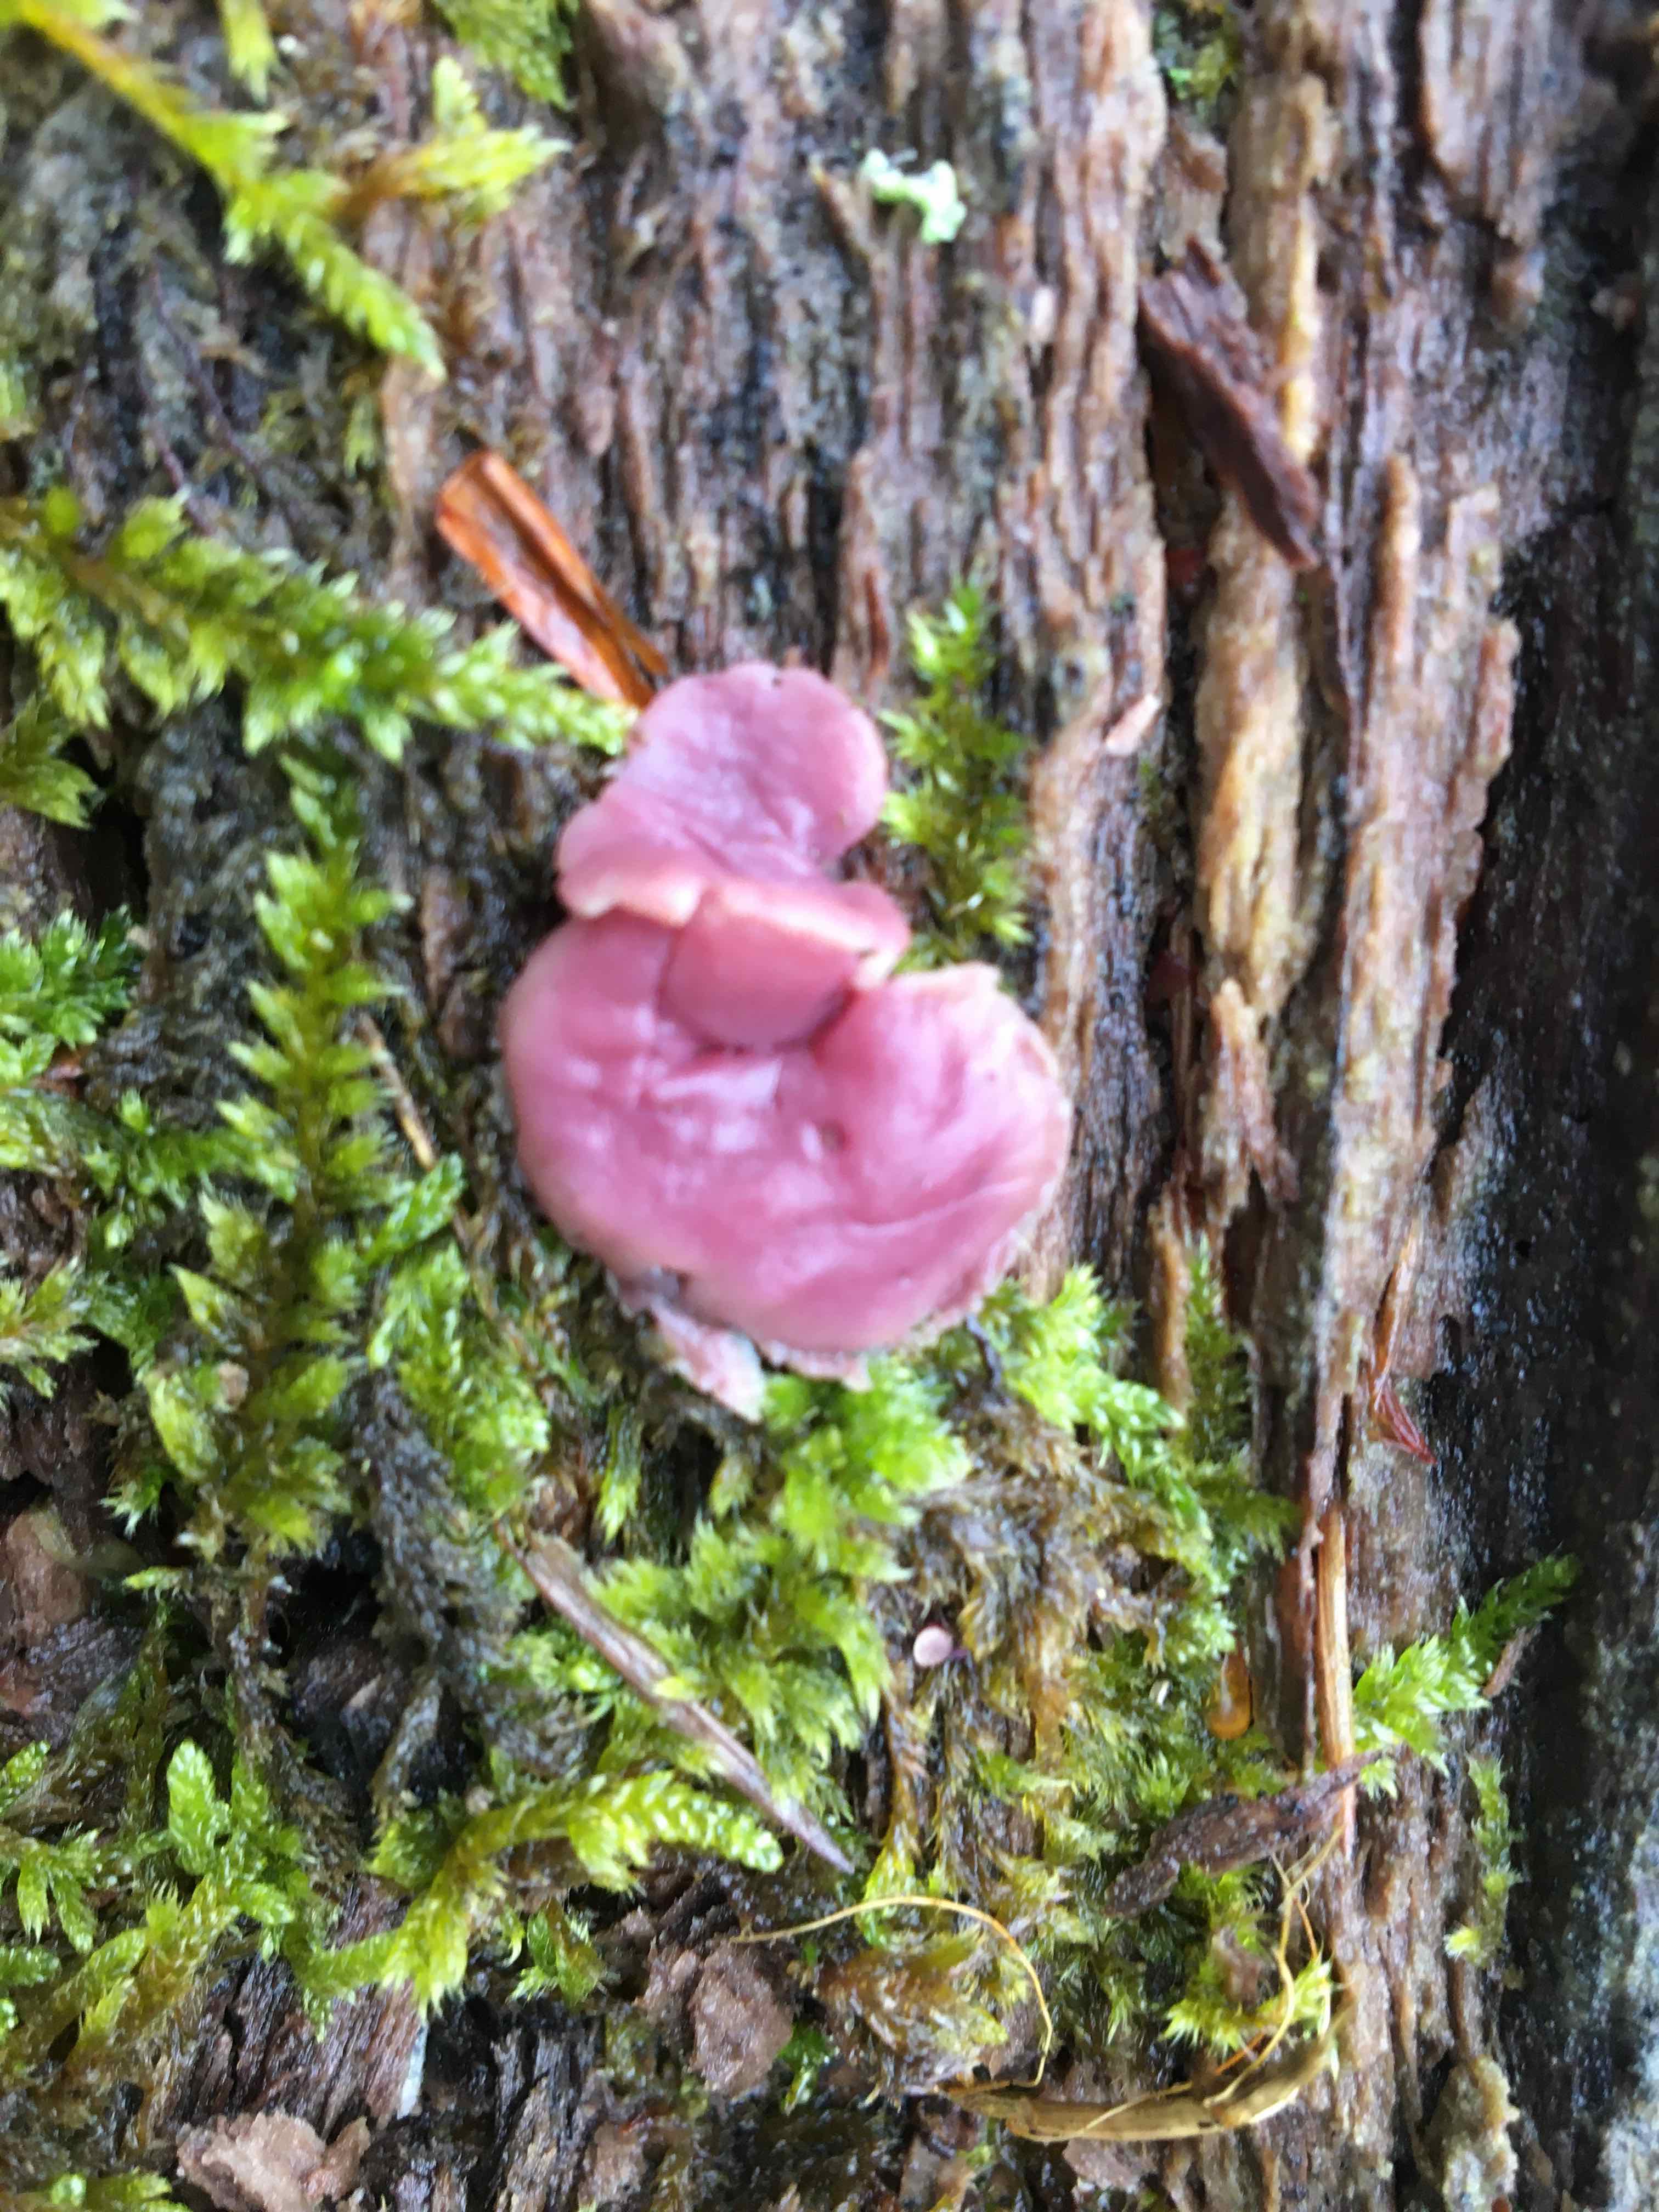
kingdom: Fungi
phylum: Ascomycota
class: Leotiomycetes
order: Helotiales
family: Gelatinodiscaceae
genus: Ascocoryne
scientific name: Ascocoryne
